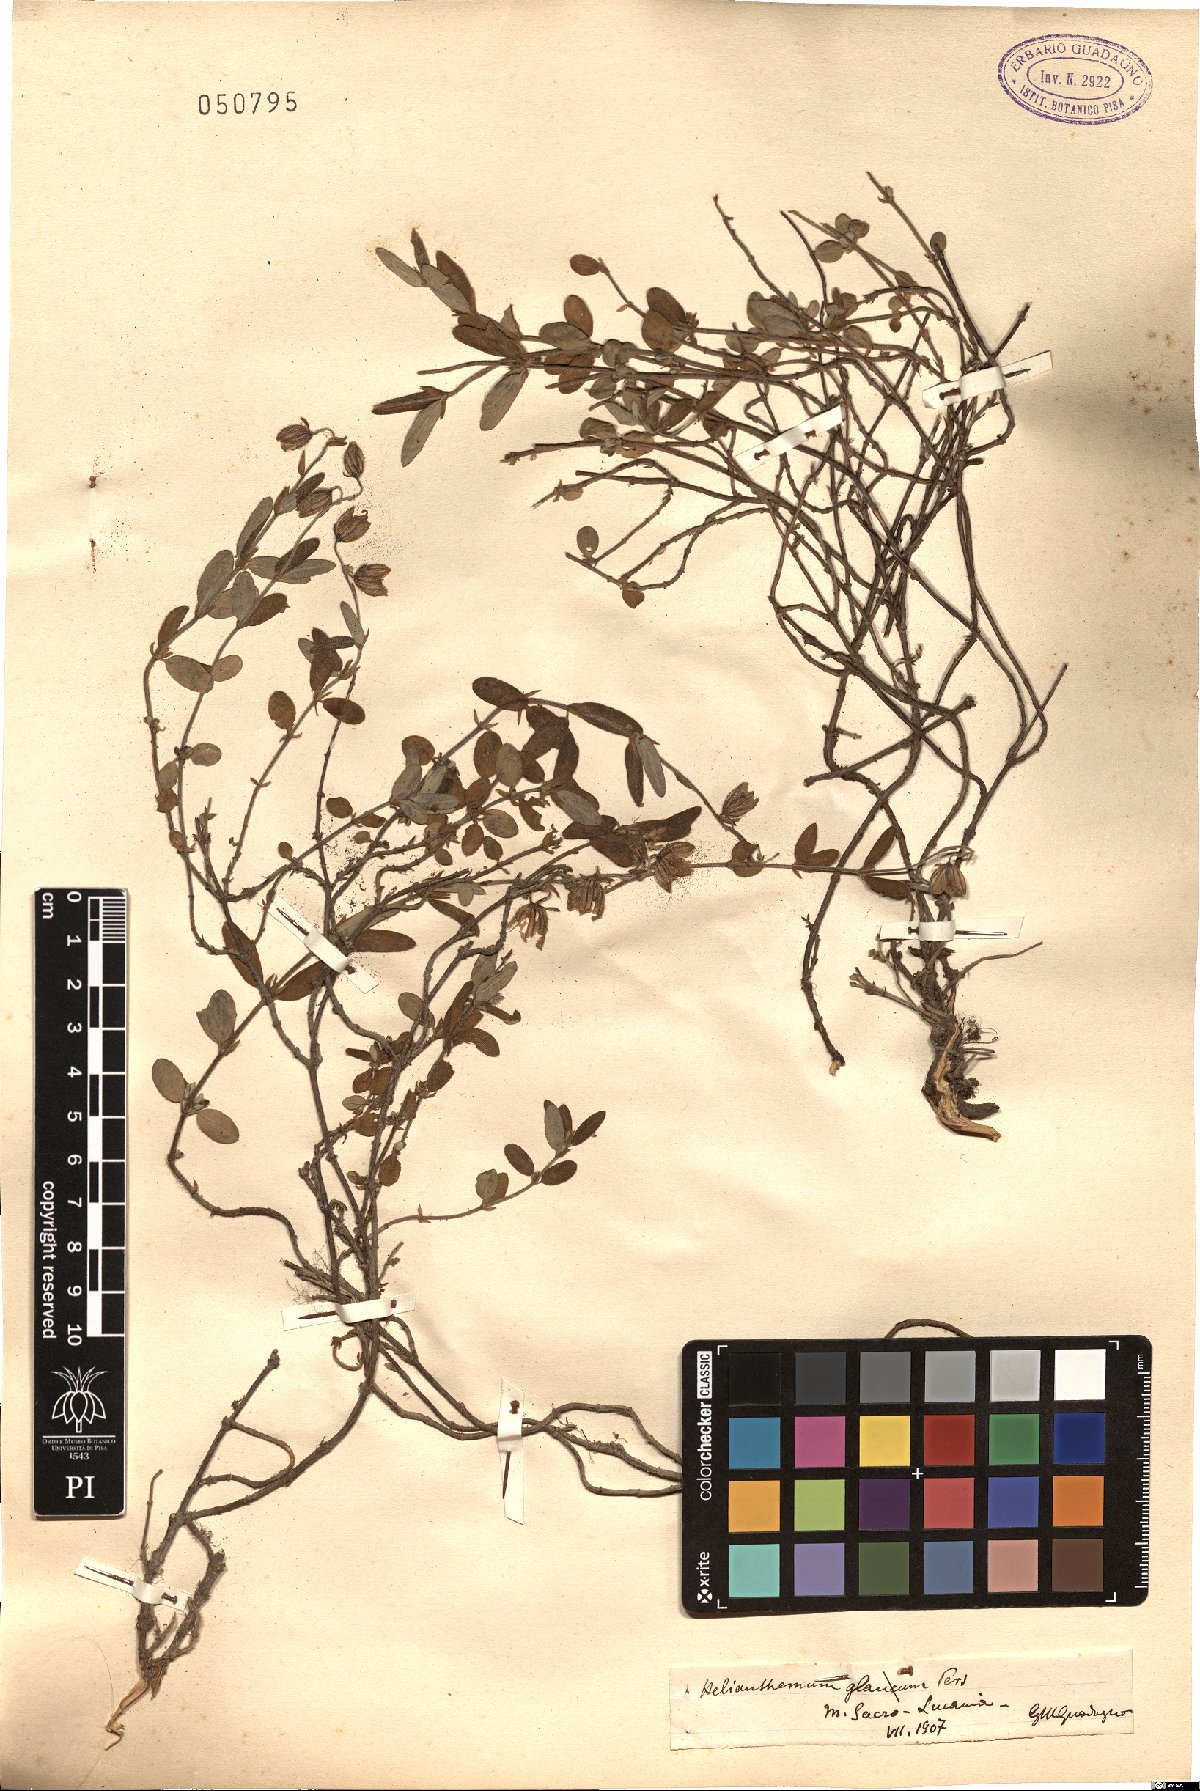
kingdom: Plantae
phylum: Tracheophyta
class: Magnoliopsida
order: Malvales
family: Cistaceae
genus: Helianthemum
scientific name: Helianthemum
